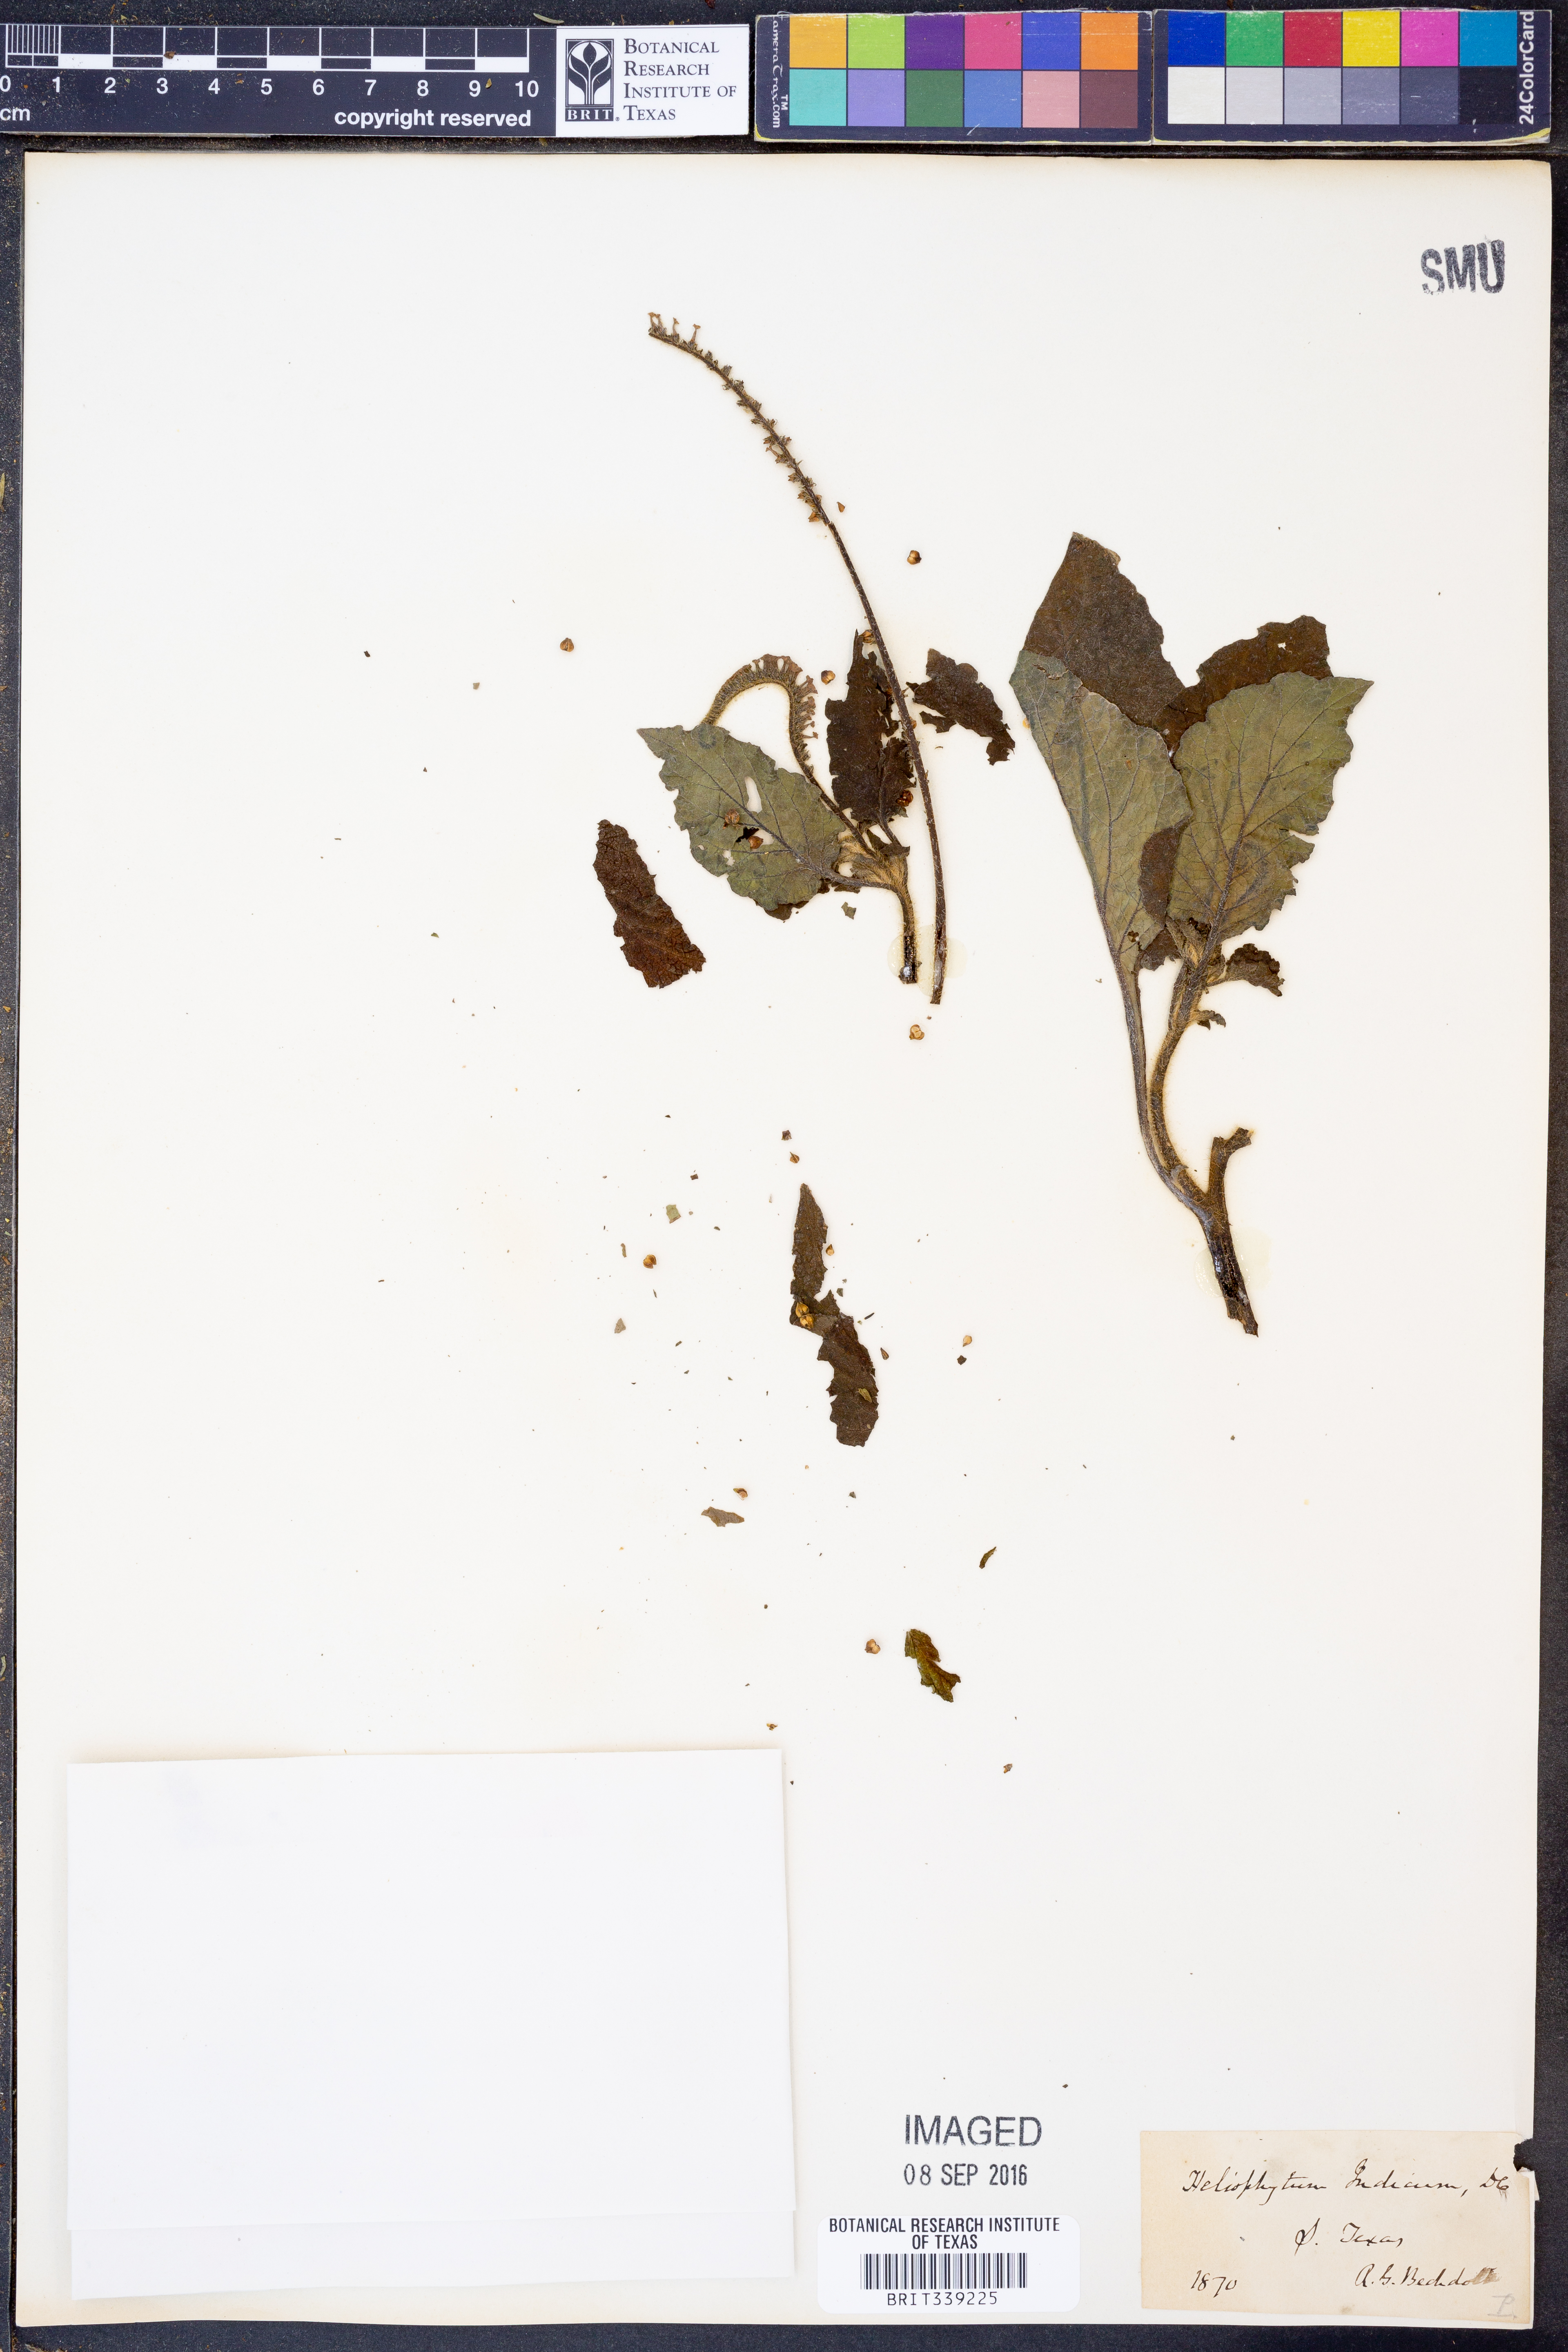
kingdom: Plantae
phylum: Tracheophyta
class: Magnoliopsida
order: Boraginales
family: Heliotropiaceae
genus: Heliotropium
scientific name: Heliotropium indicum
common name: Indian heliotrope
